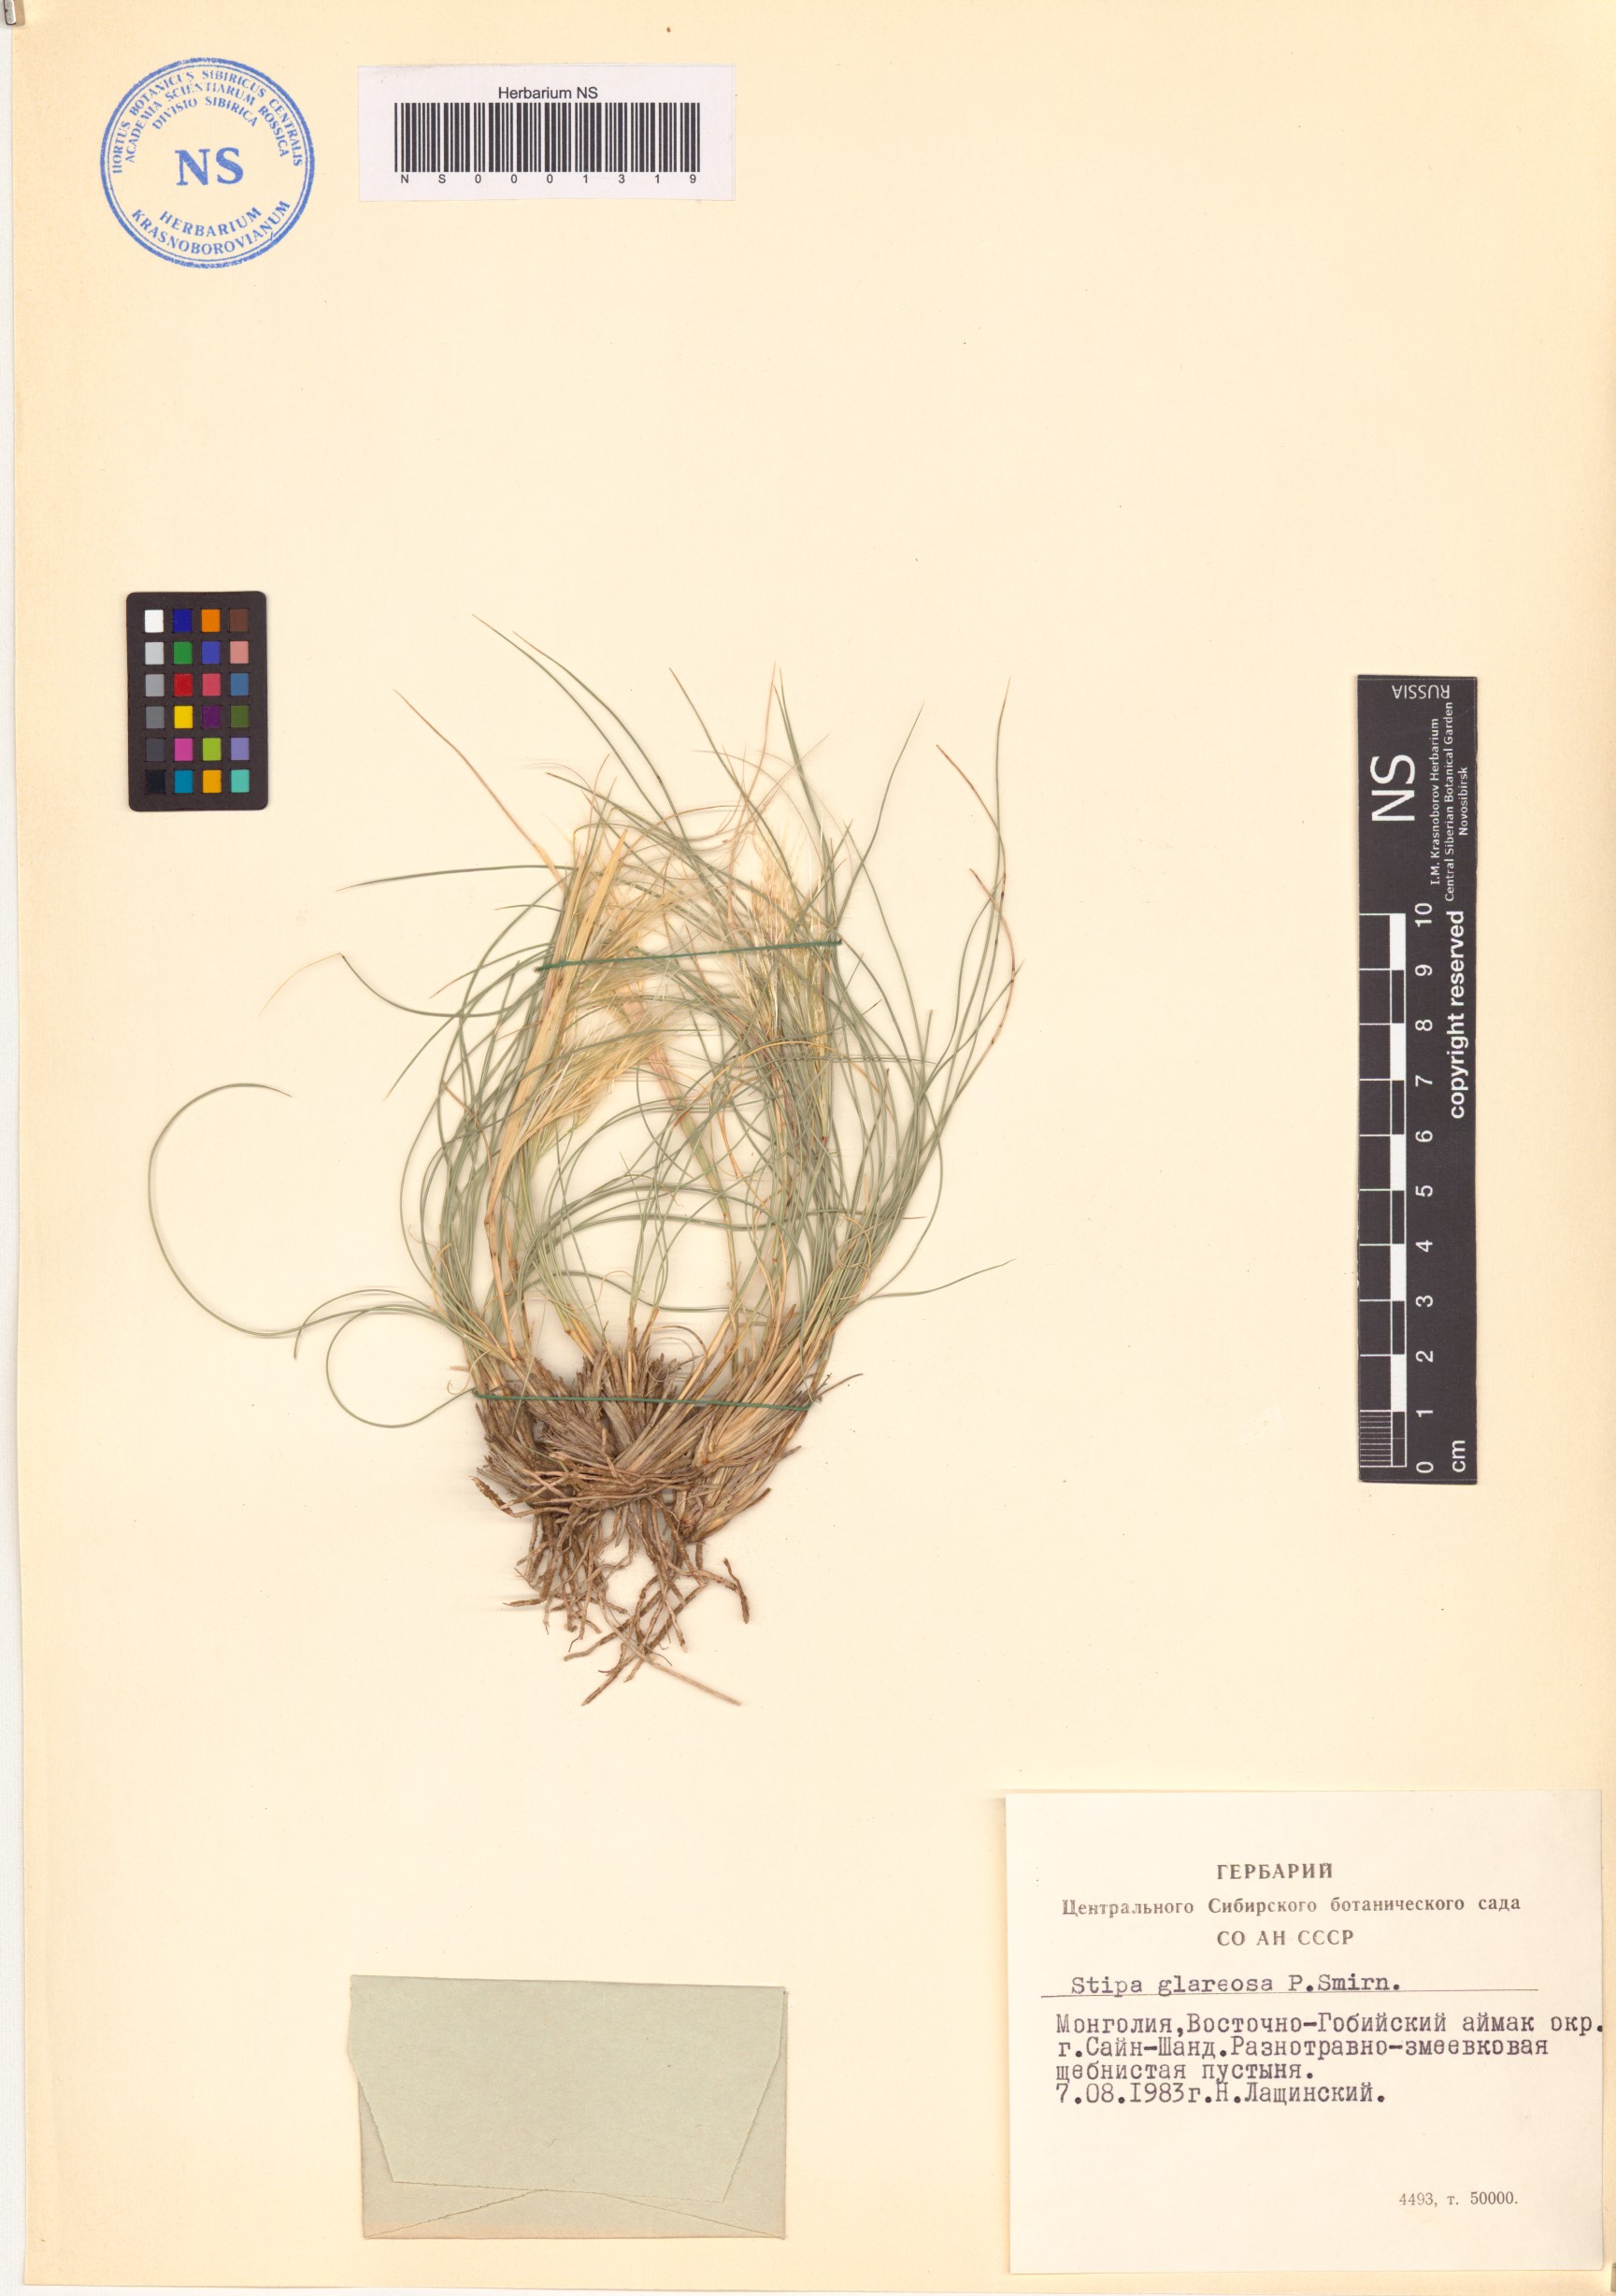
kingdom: Plantae
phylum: Tracheophyta
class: Liliopsida
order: Poales
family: Poaceae
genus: Stipa
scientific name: Stipa glareosa
